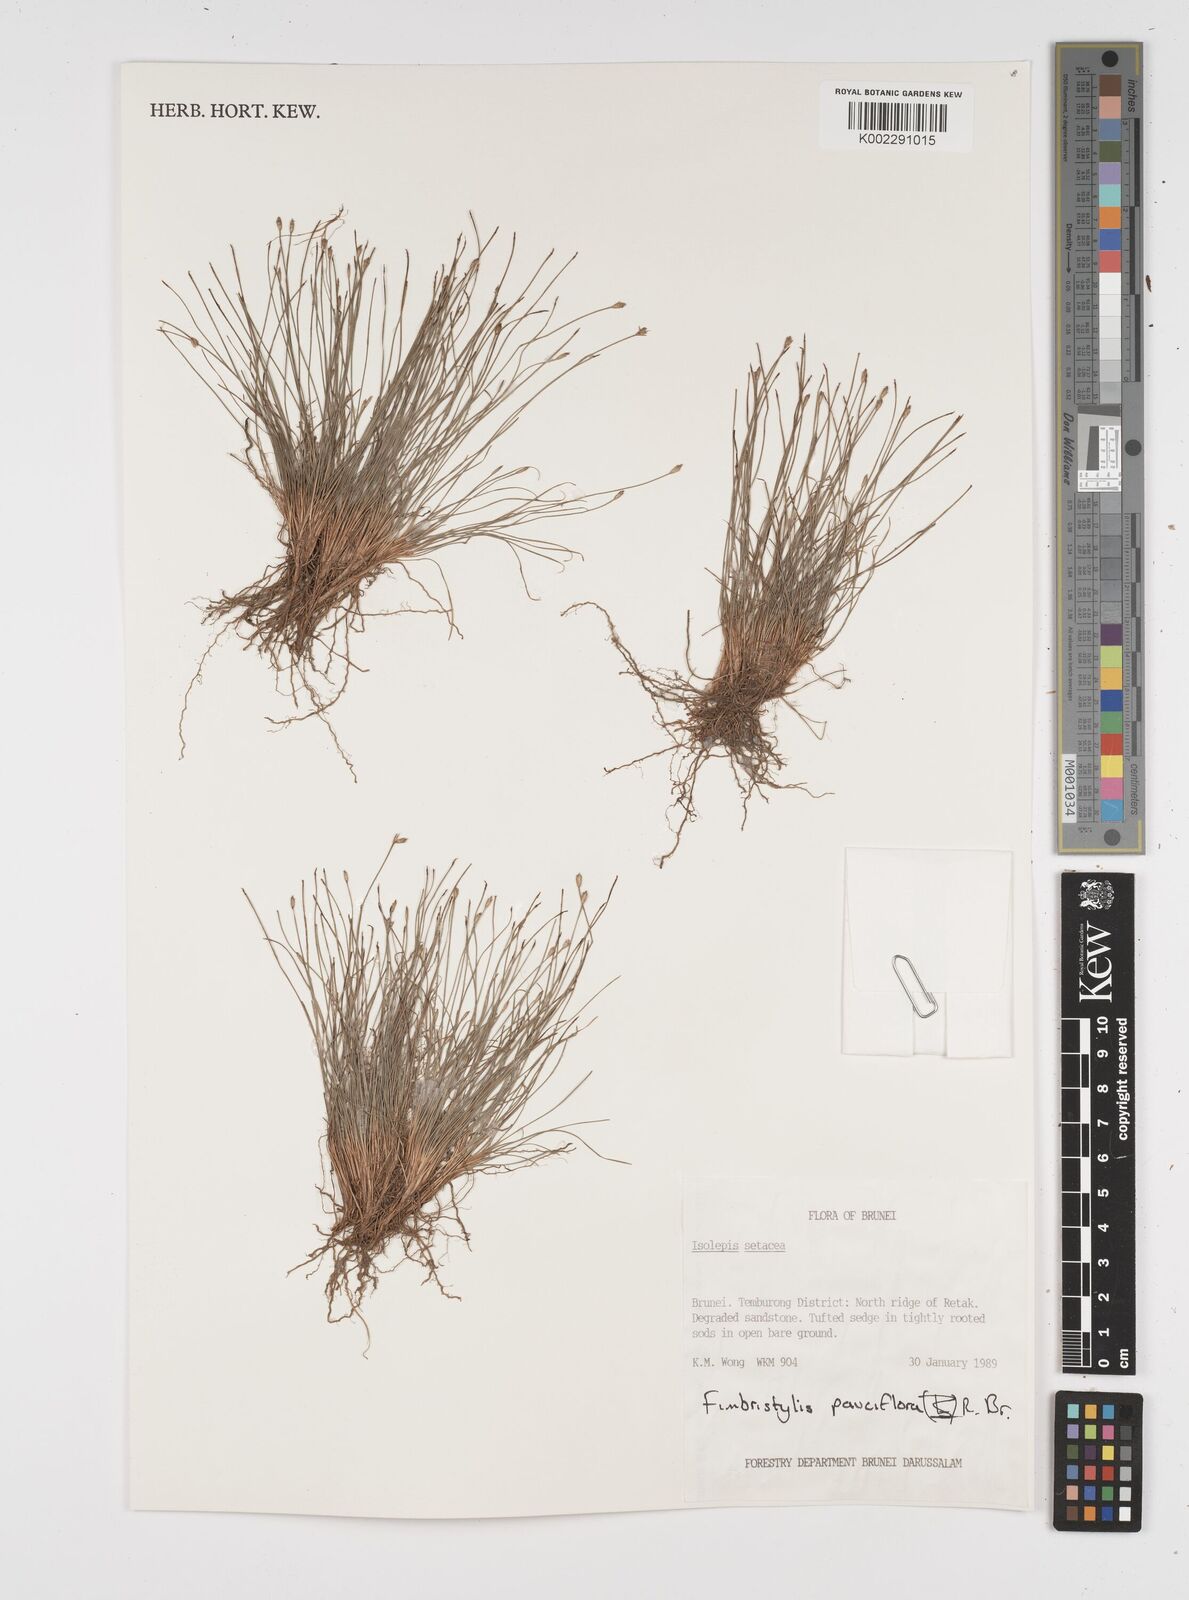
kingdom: Plantae
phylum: Tracheophyta
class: Liliopsida
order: Poales
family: Cyperaceae
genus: Fimbristylis
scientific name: Fimbristylis pauciflora
